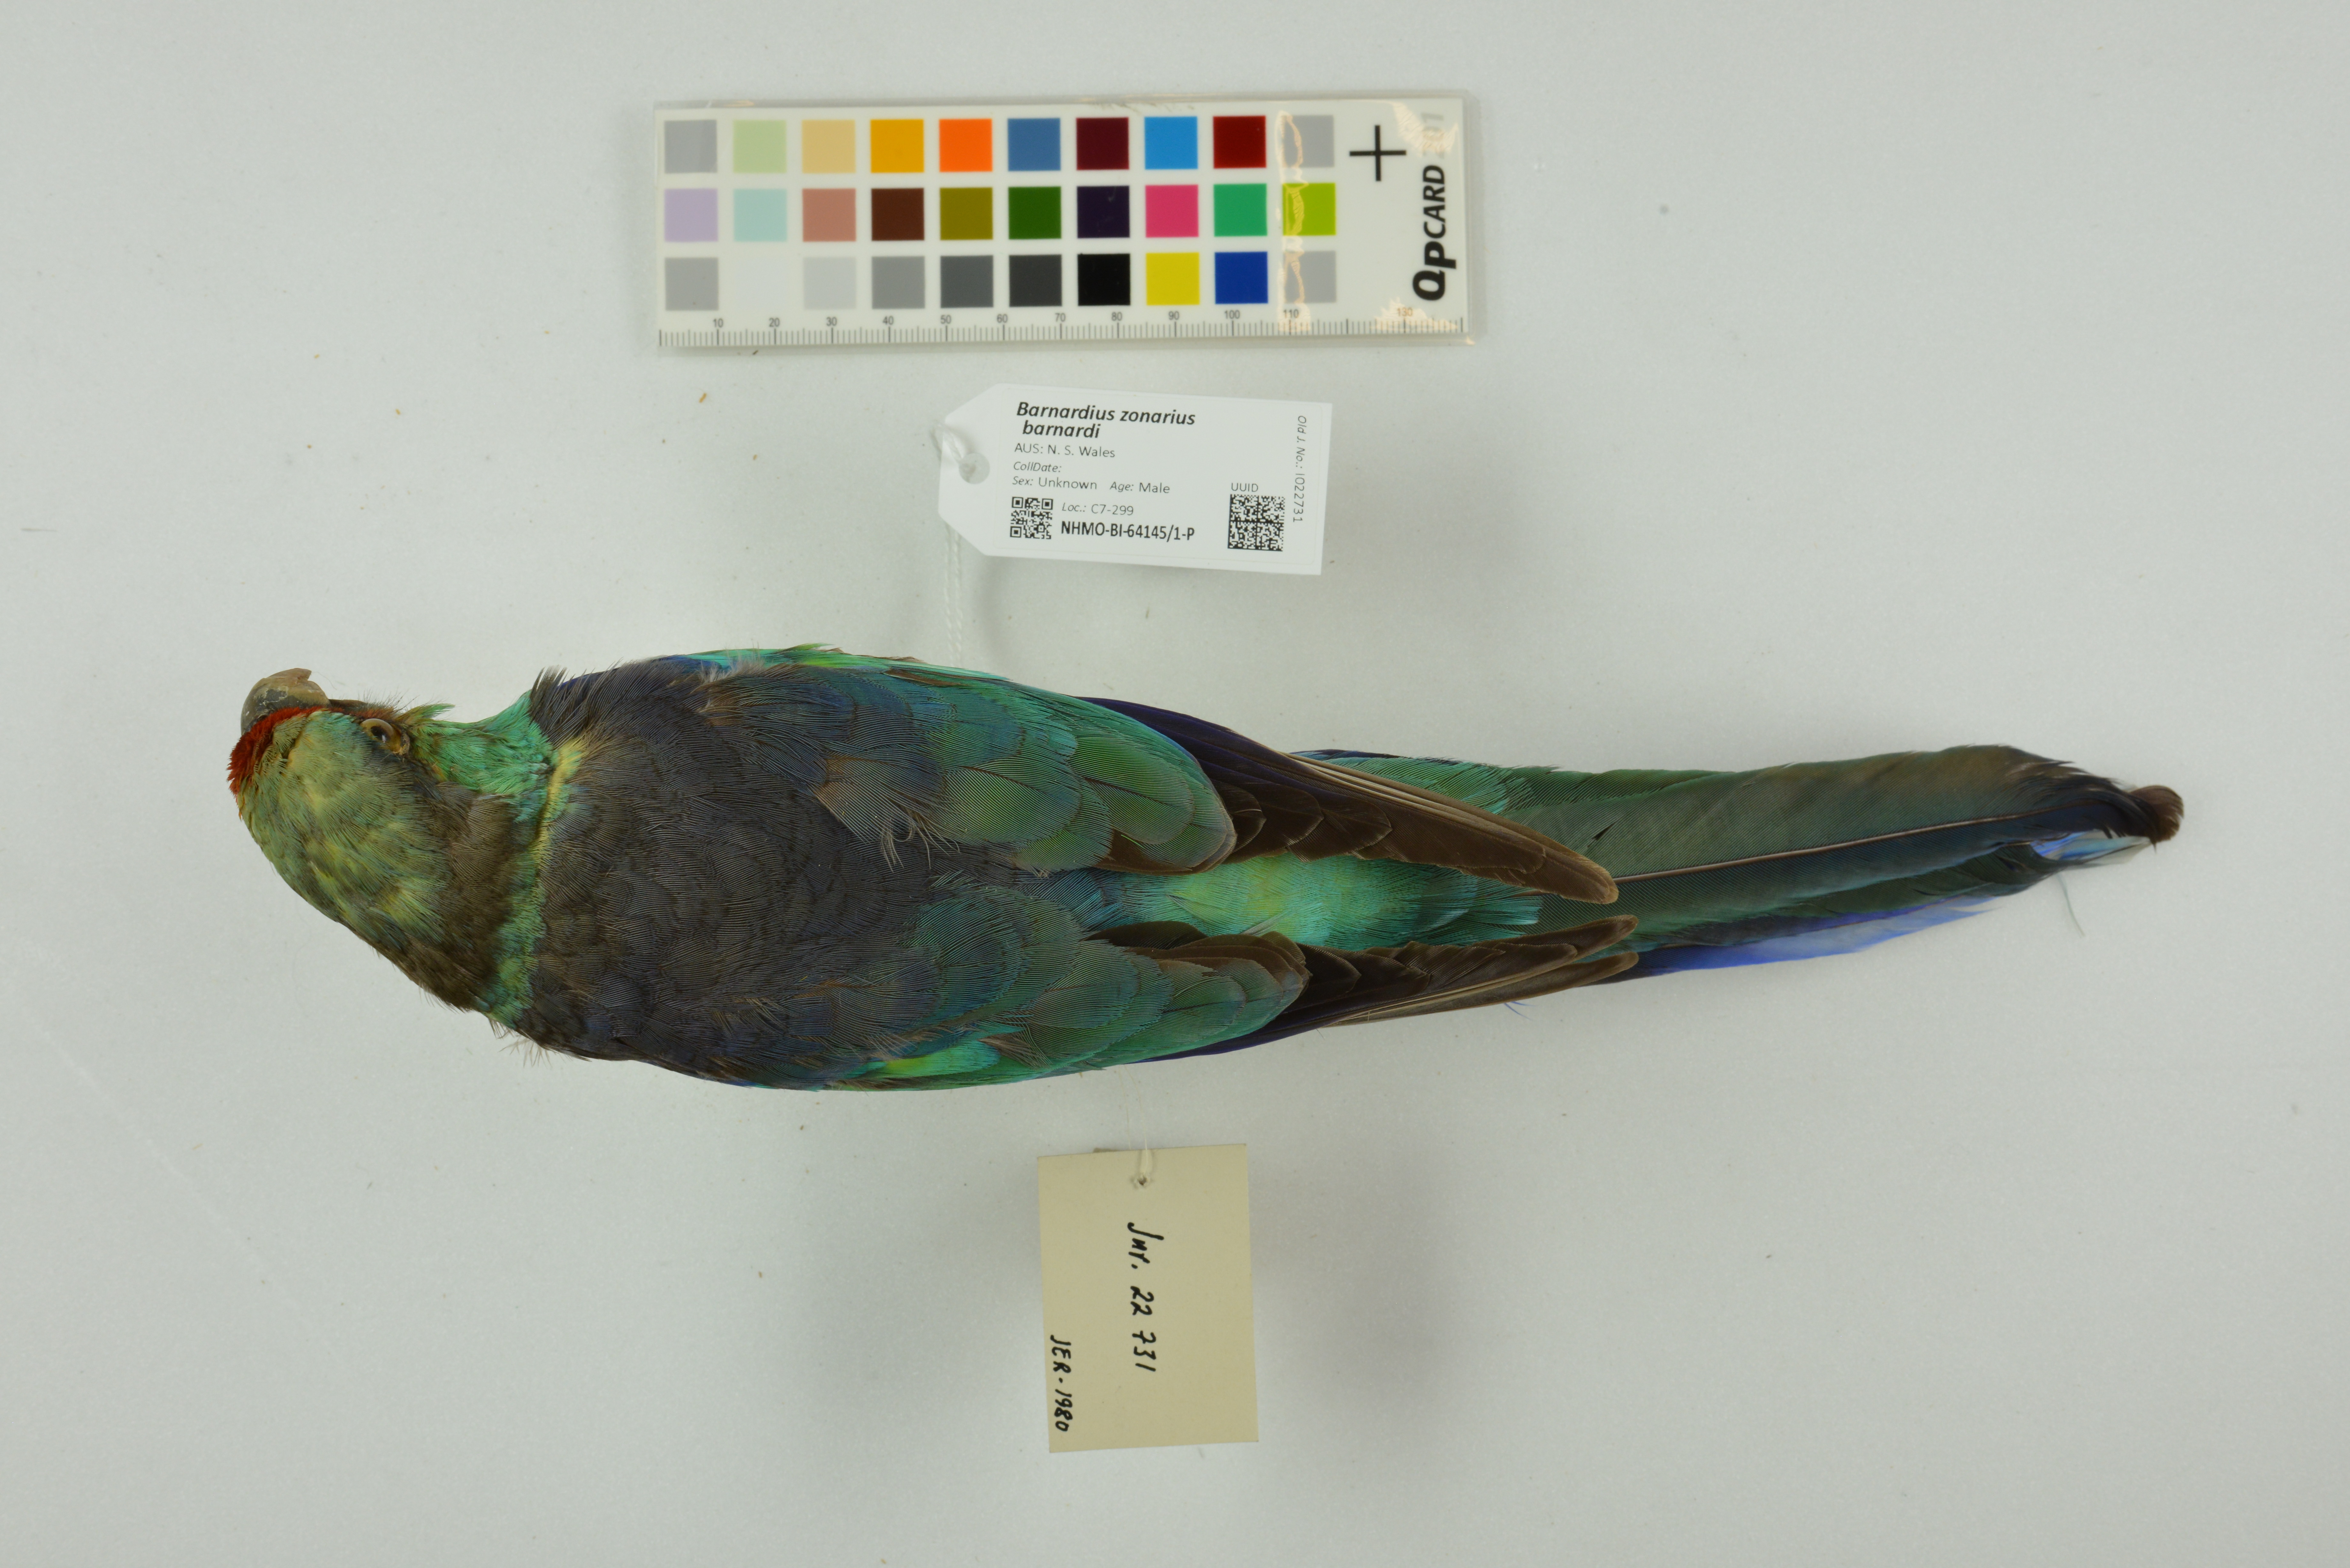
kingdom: Animalia
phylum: Chordata
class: Aves
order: Psittaciformes
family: Psittacidae
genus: Barnardius
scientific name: Barnardius zonarius
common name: Australian ringneck
